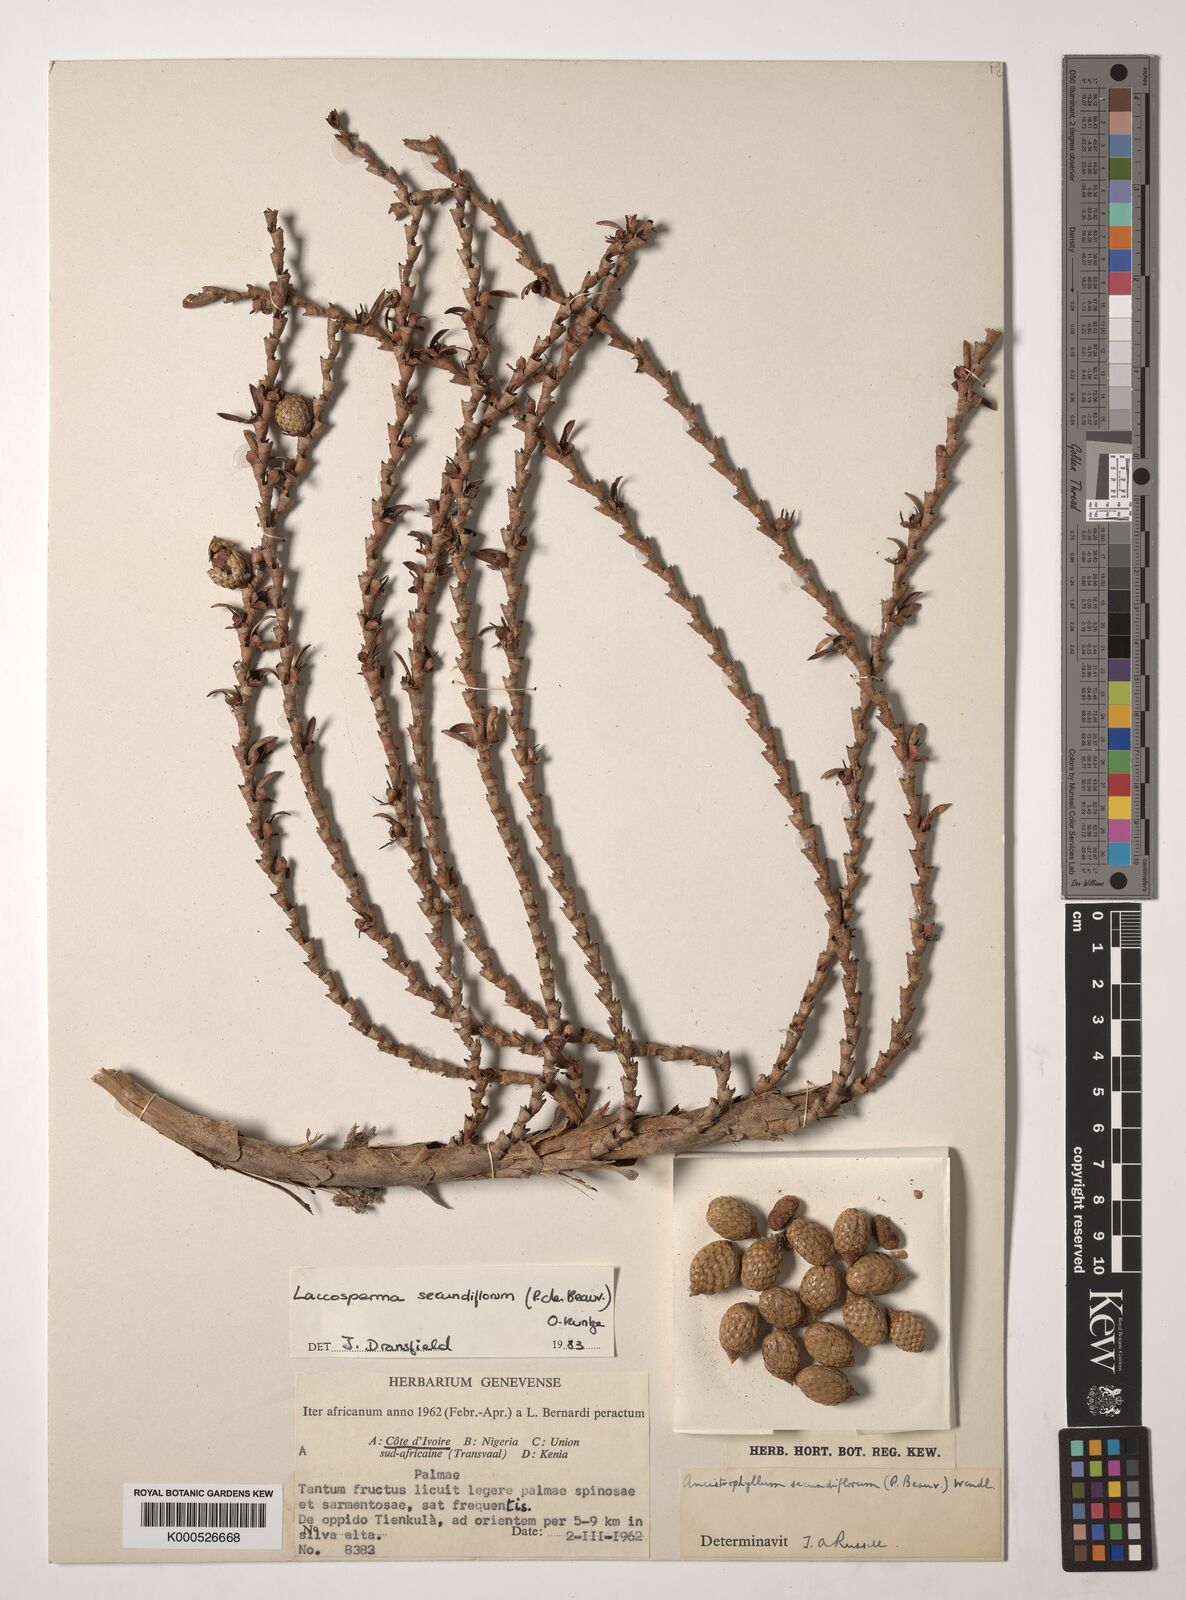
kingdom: Plantae
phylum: Tracheophyta
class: Liliopsida
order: Arecales
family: Arecaceae
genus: Laccosperma
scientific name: Laccosperma secundiflorum
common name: Rattan
